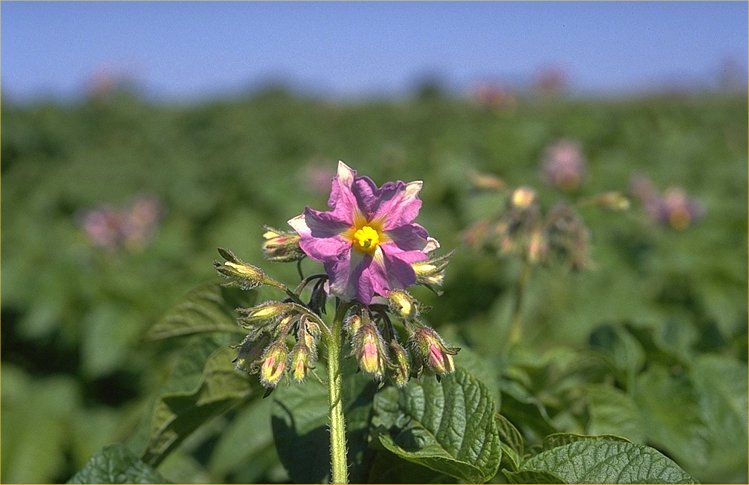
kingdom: Plantae
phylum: Tracheophyta
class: Magnoliopsida
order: Solanales
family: Solanaceae
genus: Solanum
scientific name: Solanum tuberosum
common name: Potato
